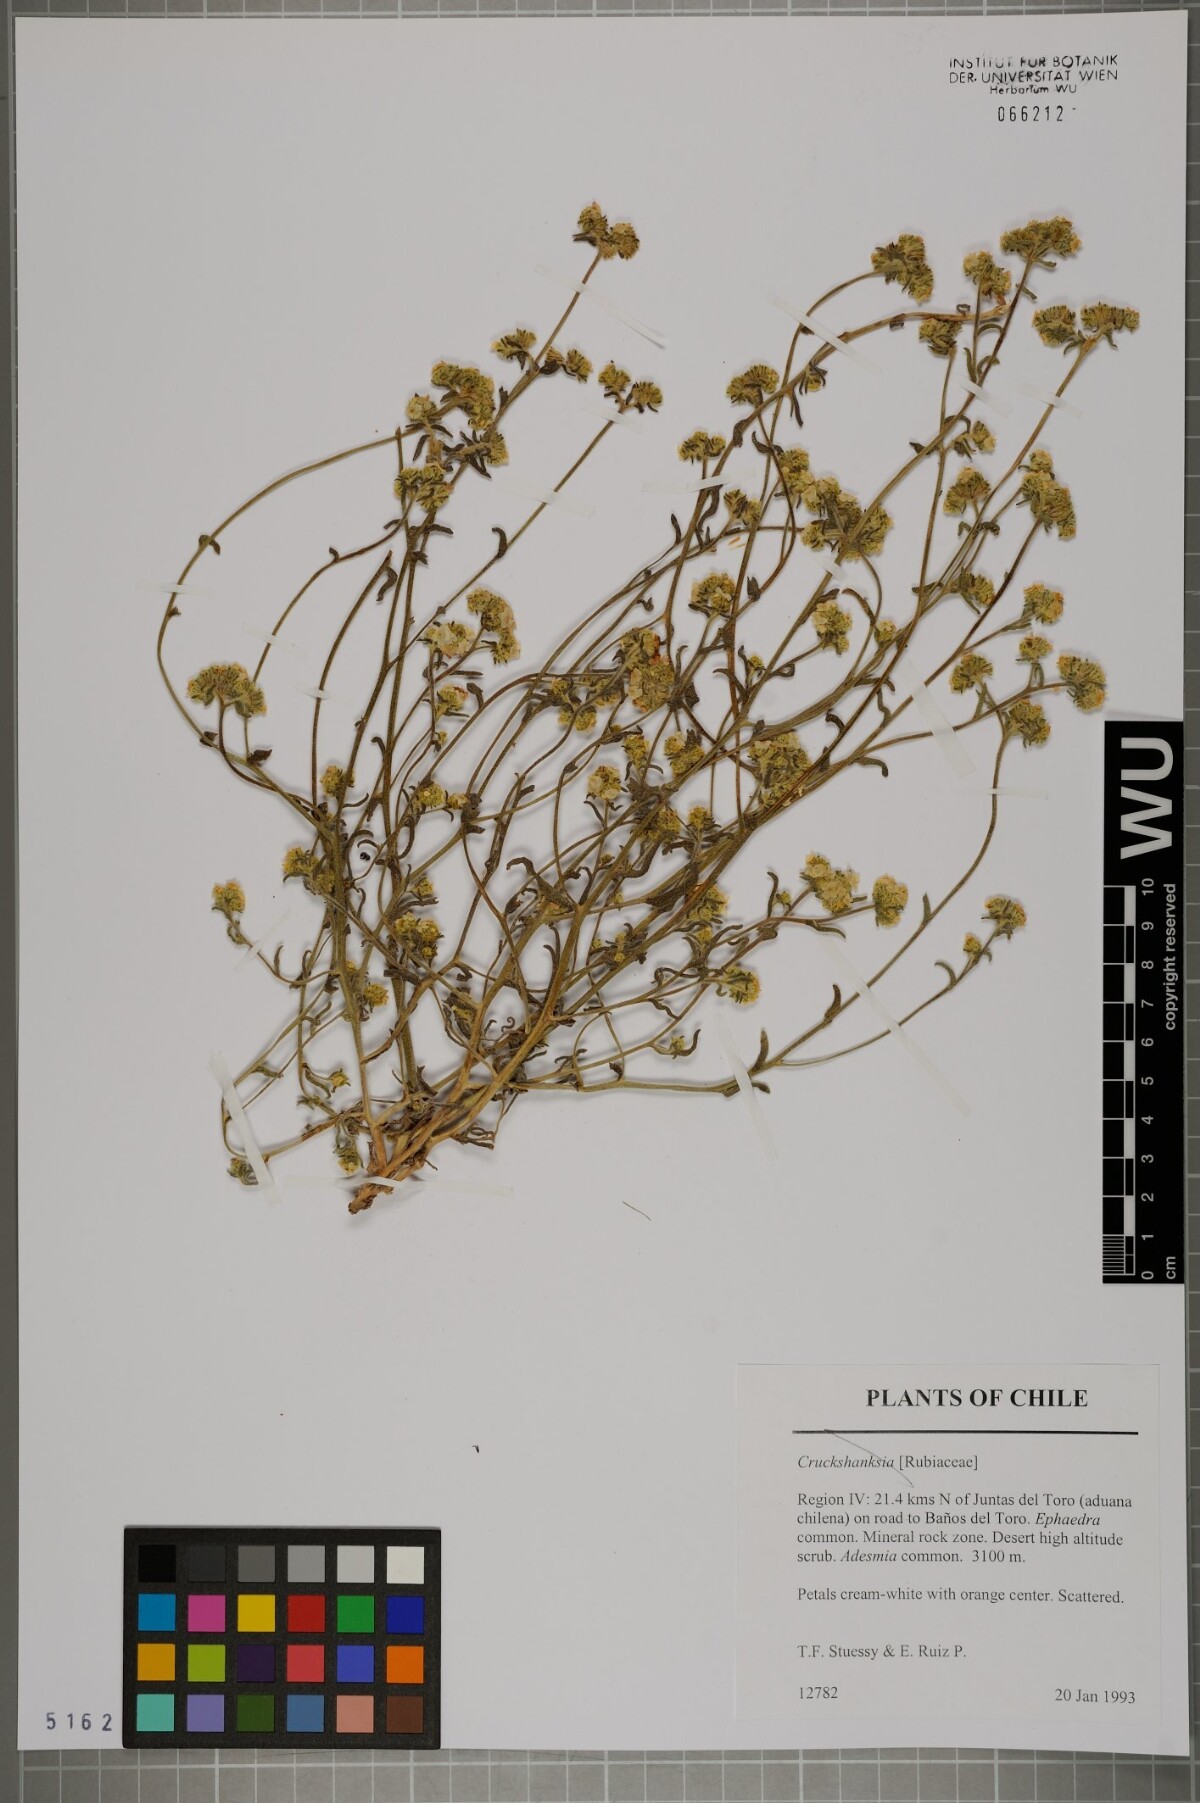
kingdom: Plantae
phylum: Tracheophyta
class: Magnoliopsida
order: Gentianales
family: Rubiaceae
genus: Cruckshanksia
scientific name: Cruckshanksia
